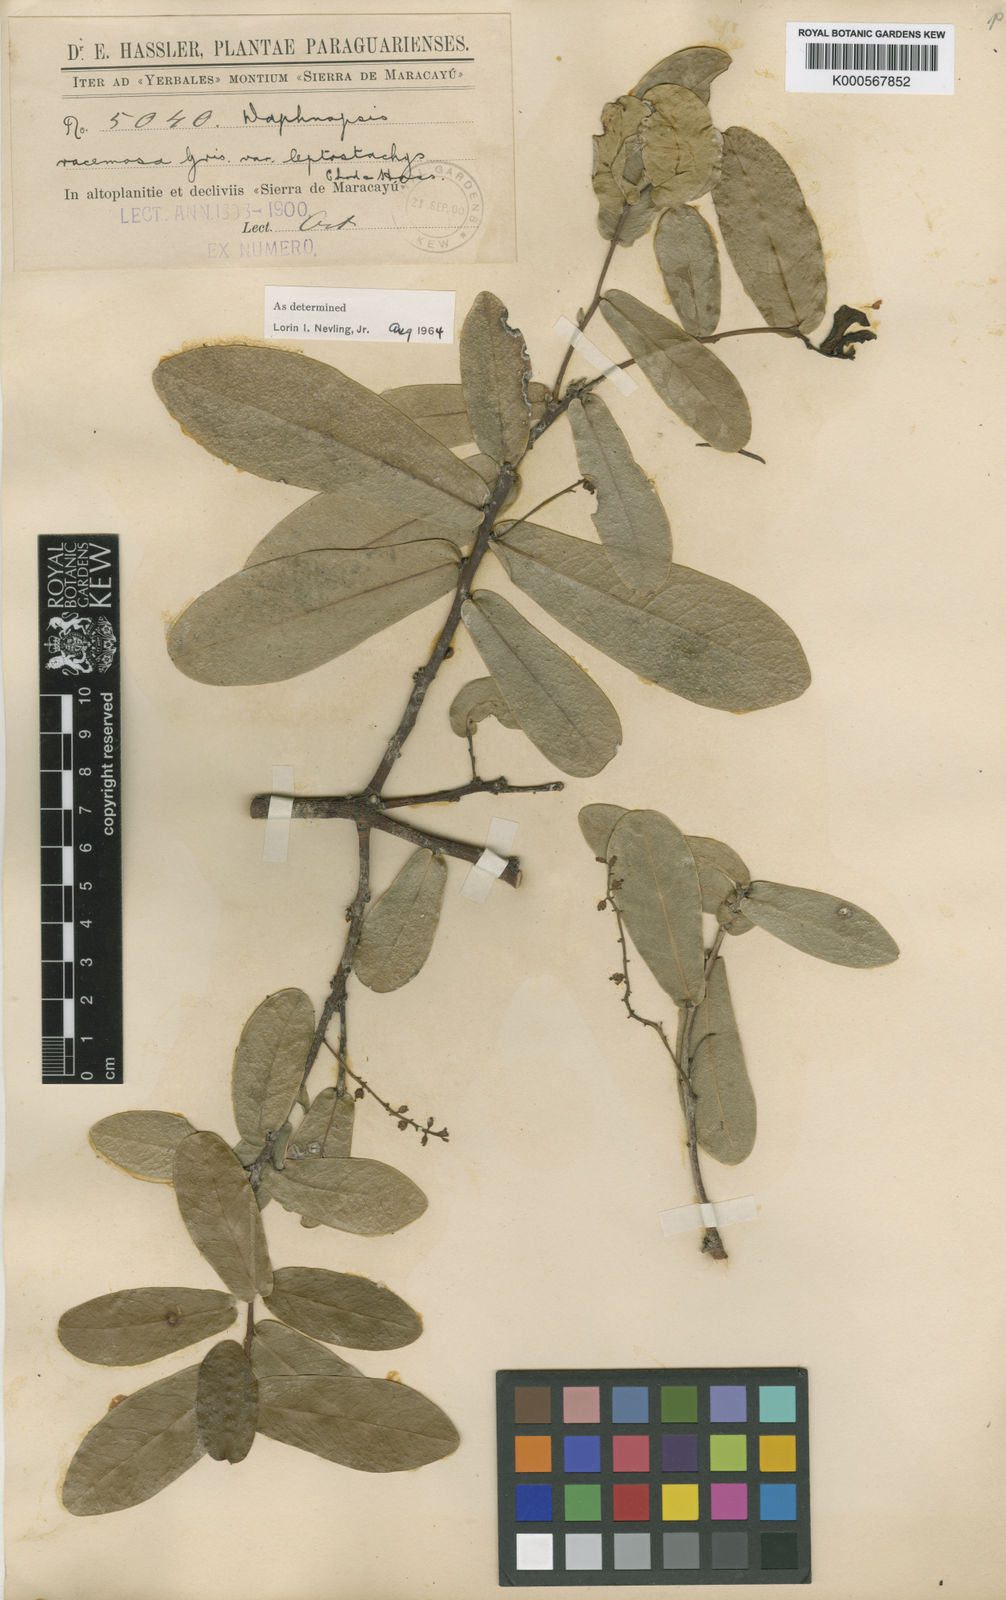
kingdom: Plantae
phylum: Tracheophyta
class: Magnoliopsida
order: Malvales
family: Thymelaeaceae
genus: Daphnopsis
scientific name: Daphnopsis racemosa
